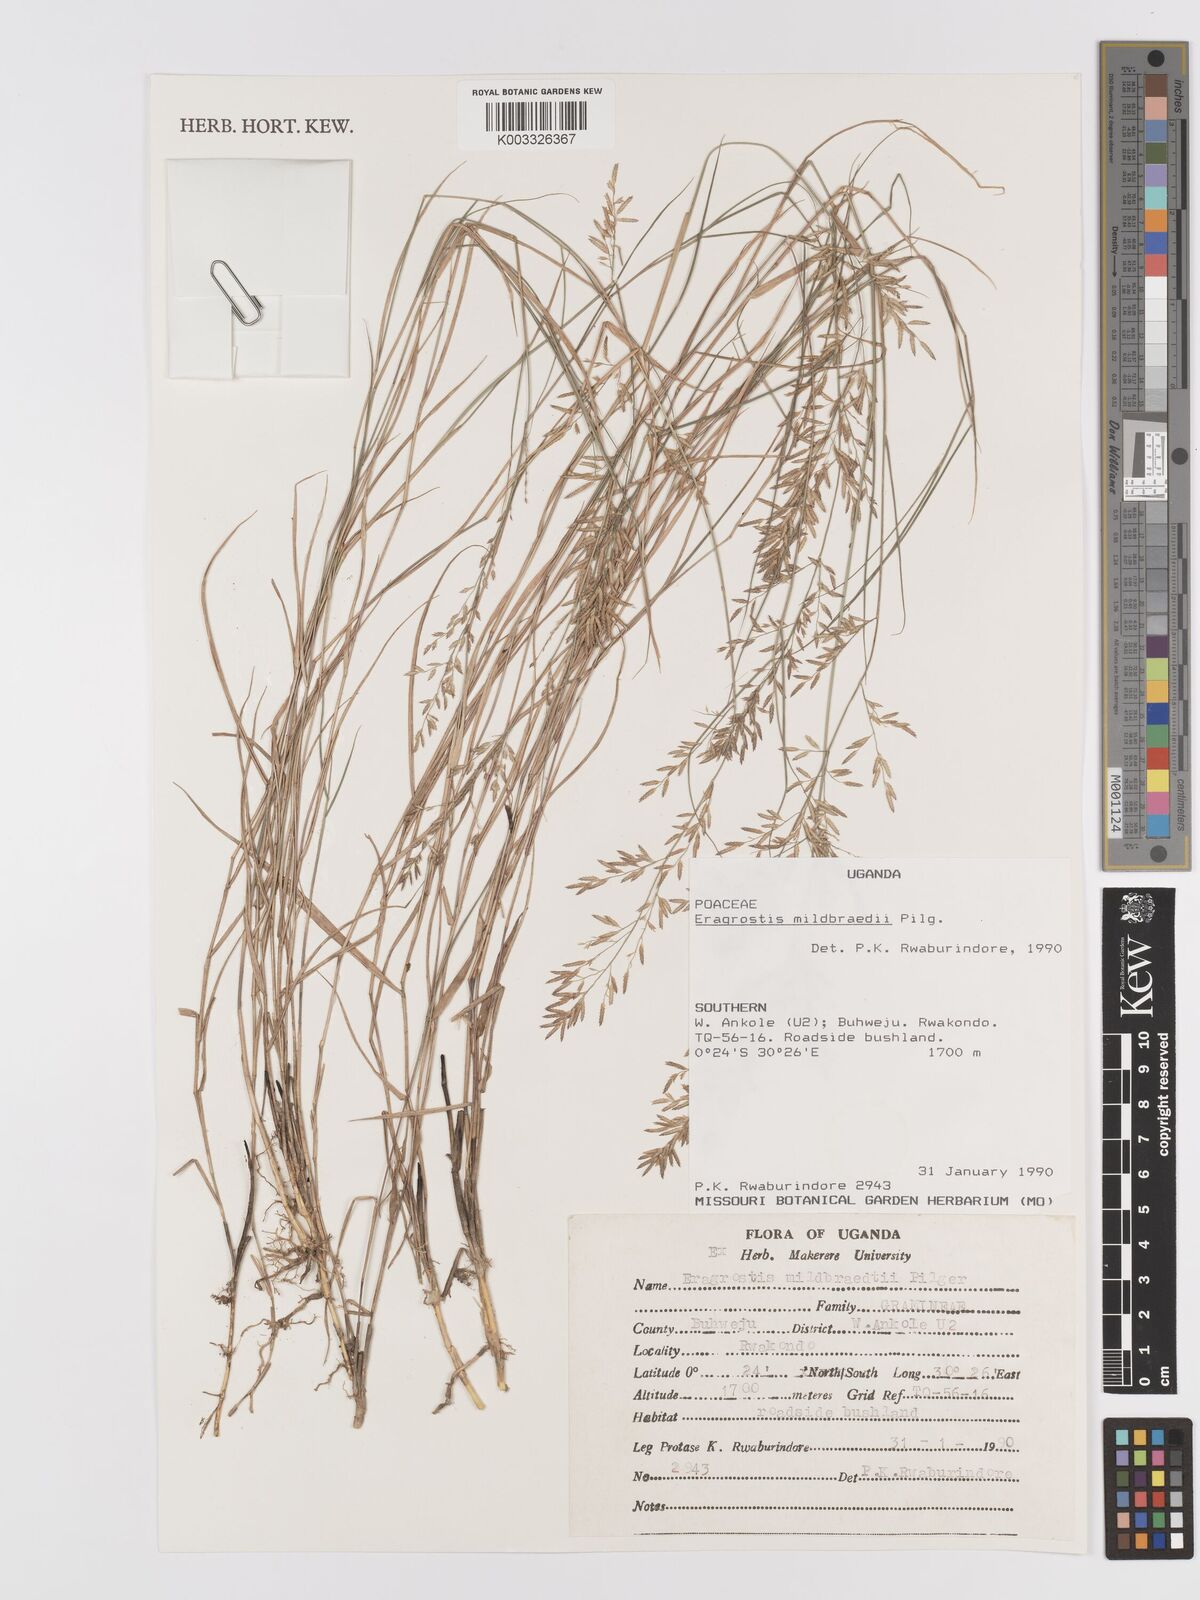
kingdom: Plantae
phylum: Tracheophyta
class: Liliopsida
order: Poales
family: Poaceae
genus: Eragrostis
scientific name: Eragrostis mildbraedii
